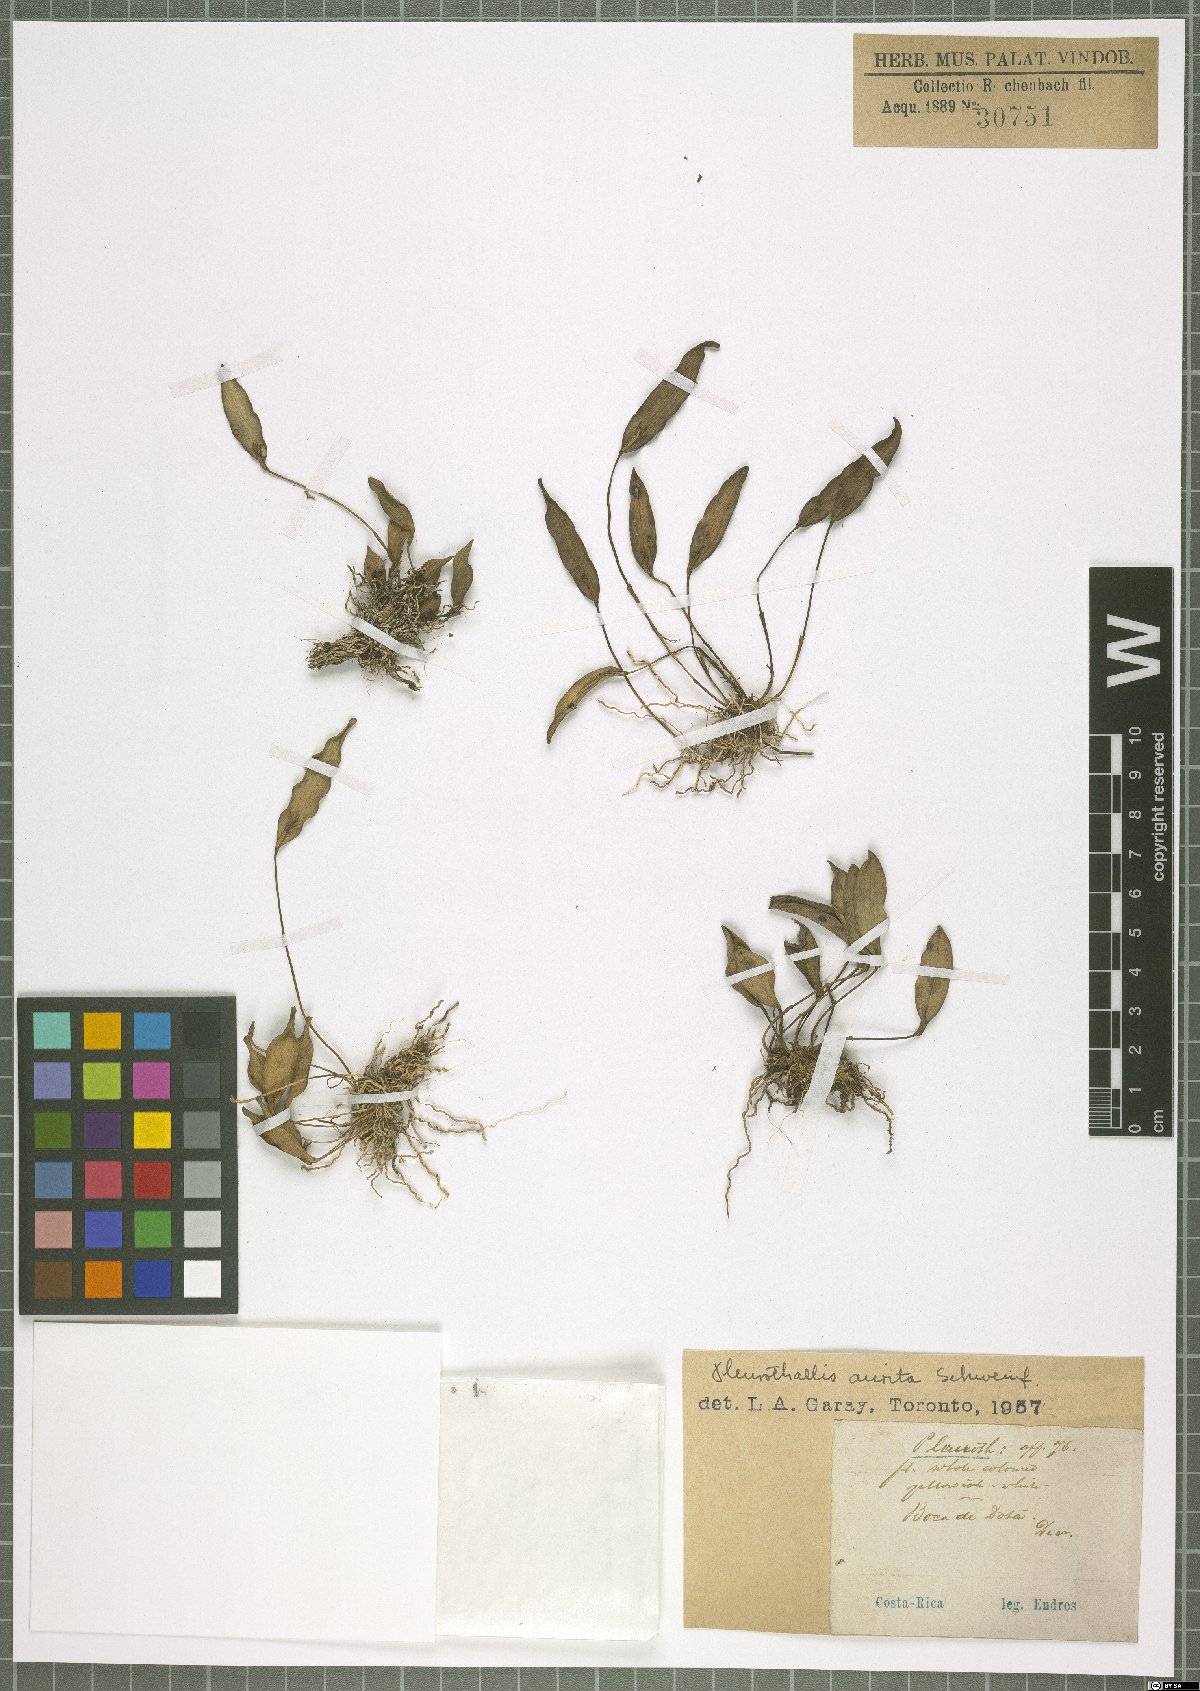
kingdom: Plantae
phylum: Tracheophyta
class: Liliopsida
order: Asparagales
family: Orchidaceae
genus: Pleurothallis
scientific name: Pleurothallis aurita
